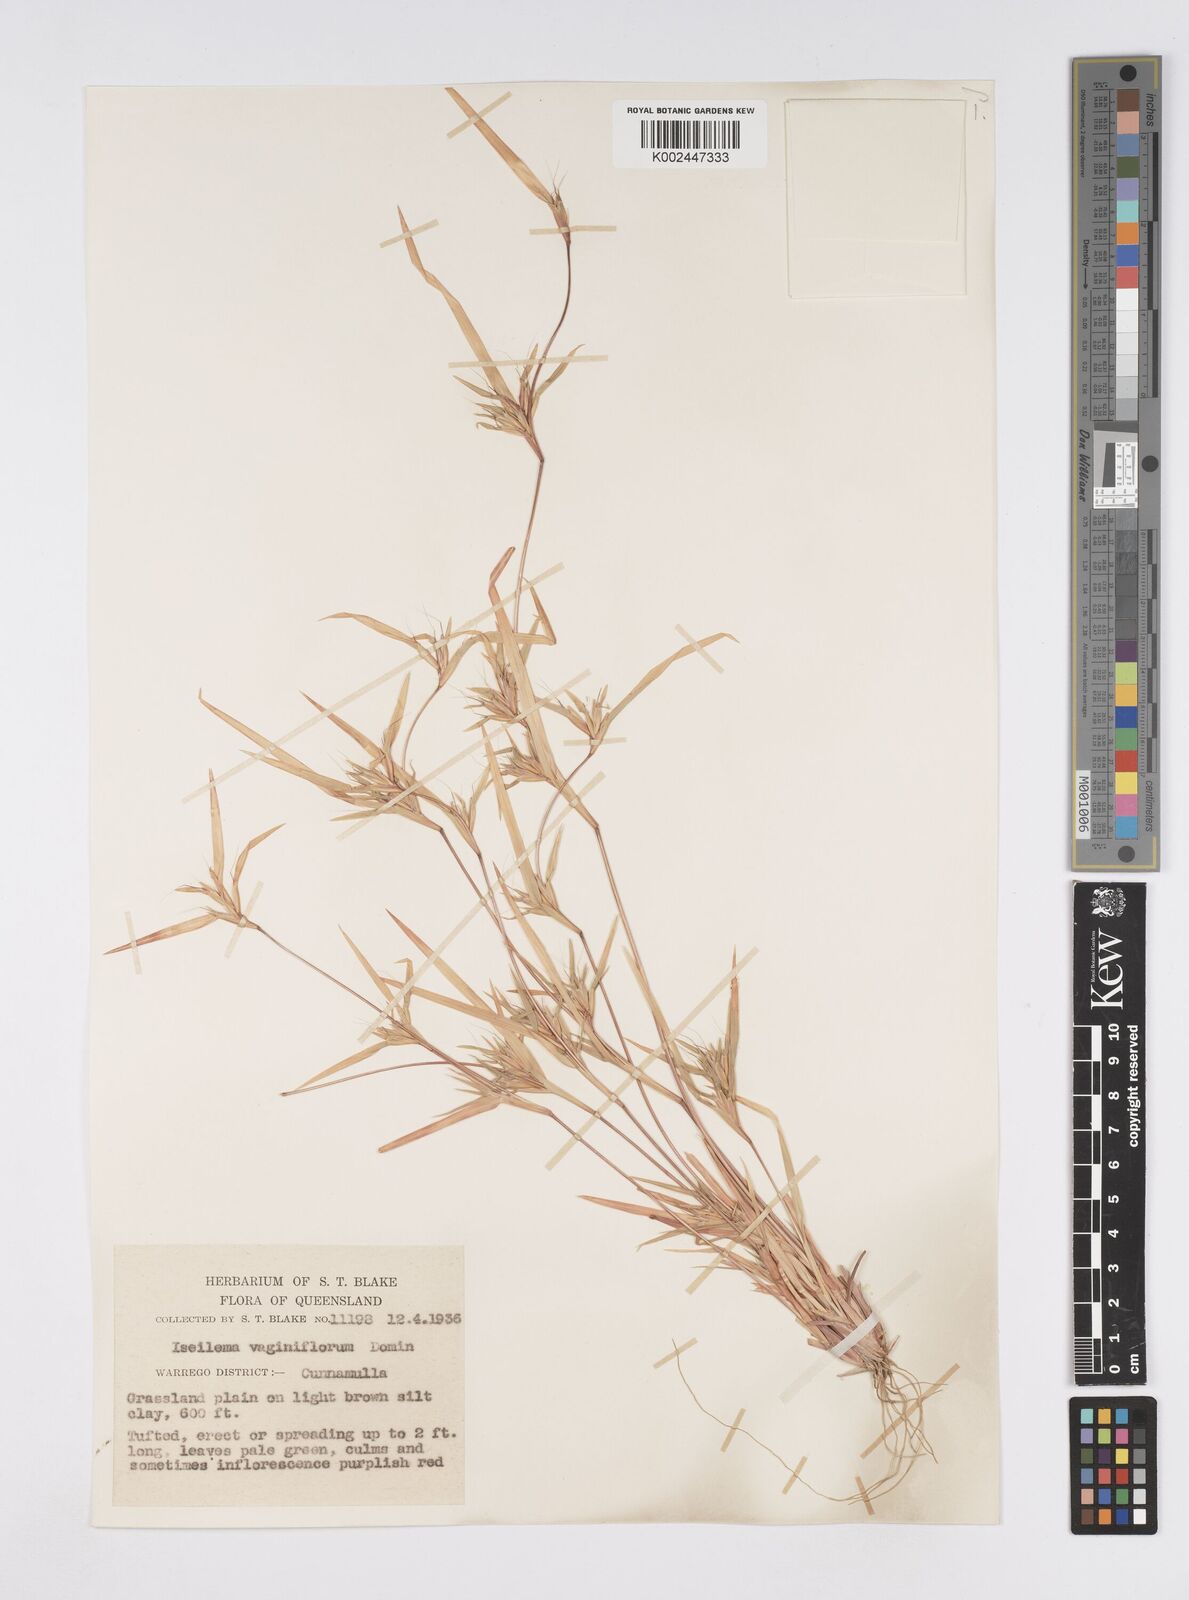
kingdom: Plantae
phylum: Tracheophyta
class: Liliopsida
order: Poales
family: Poaceae
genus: Iseilema
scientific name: Iseilema vaginiflorum
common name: Red flinders grass
